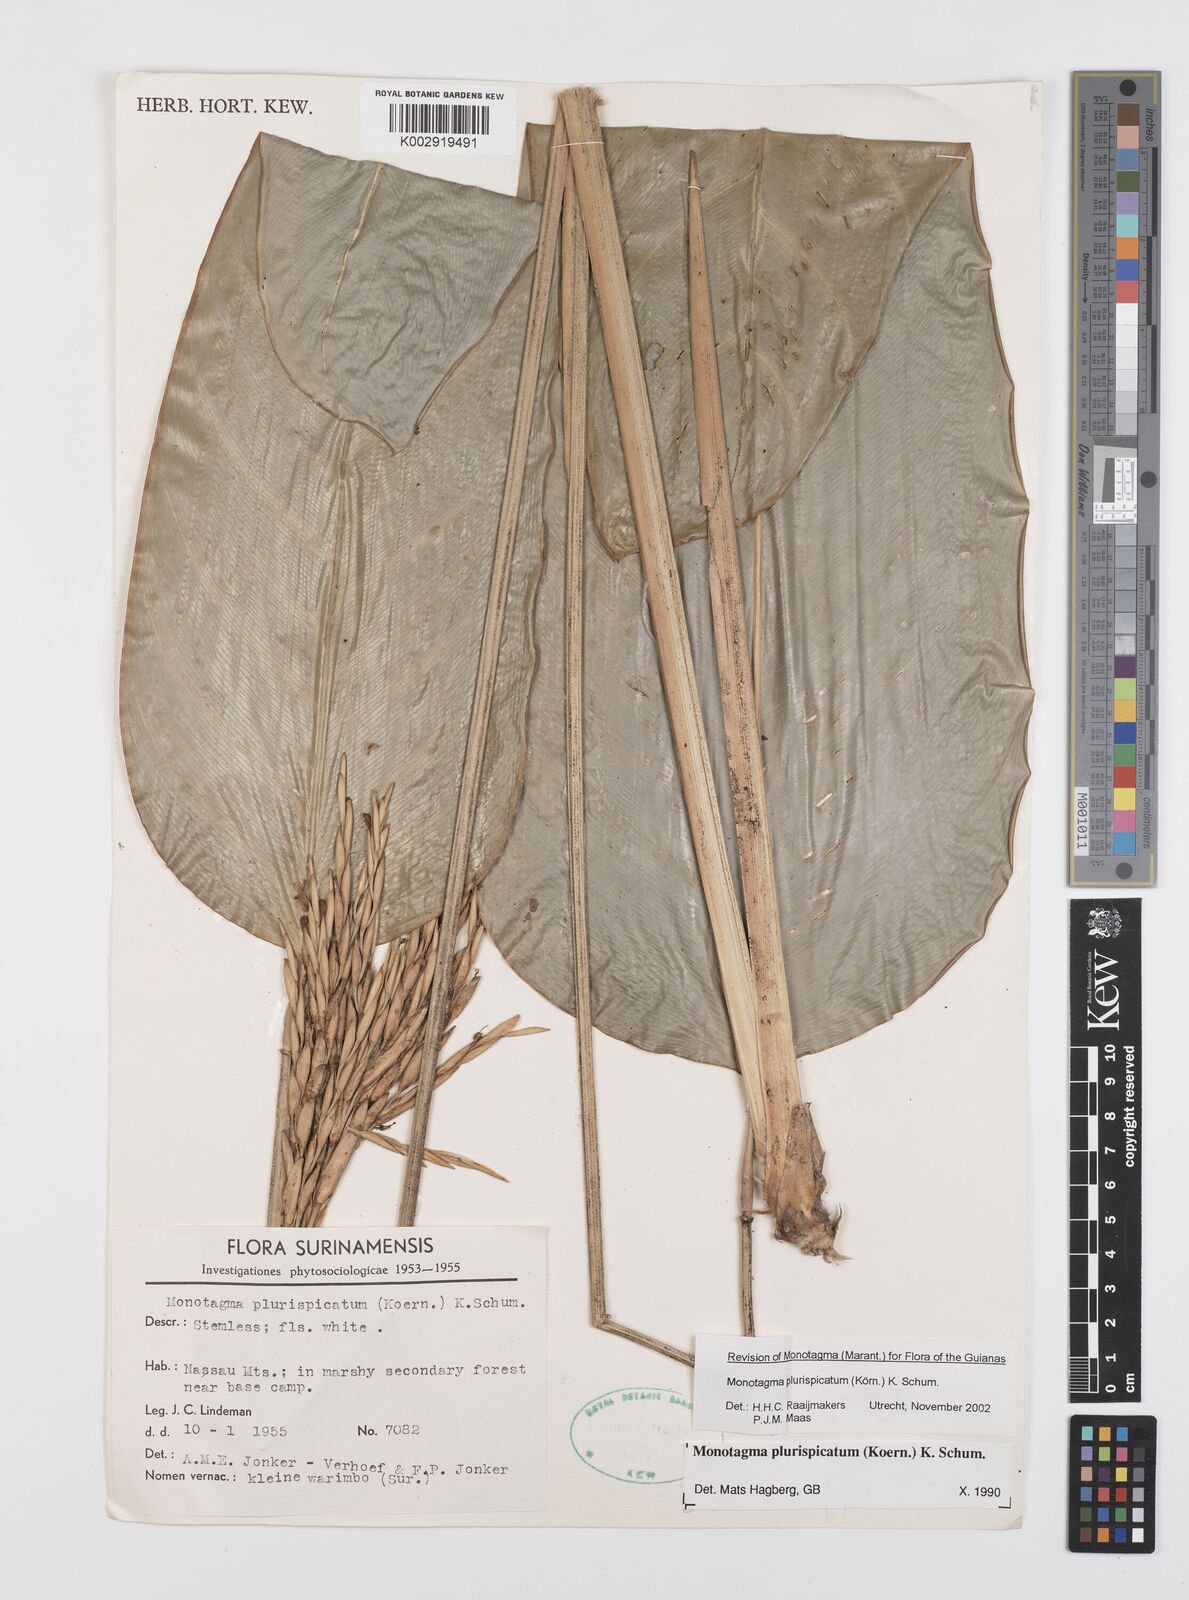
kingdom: Plantae
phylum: Tracheophyta
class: Liliopsida
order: Zingiberales
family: Marantaceae
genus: Monotagma
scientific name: Monotagma plurispicatum
